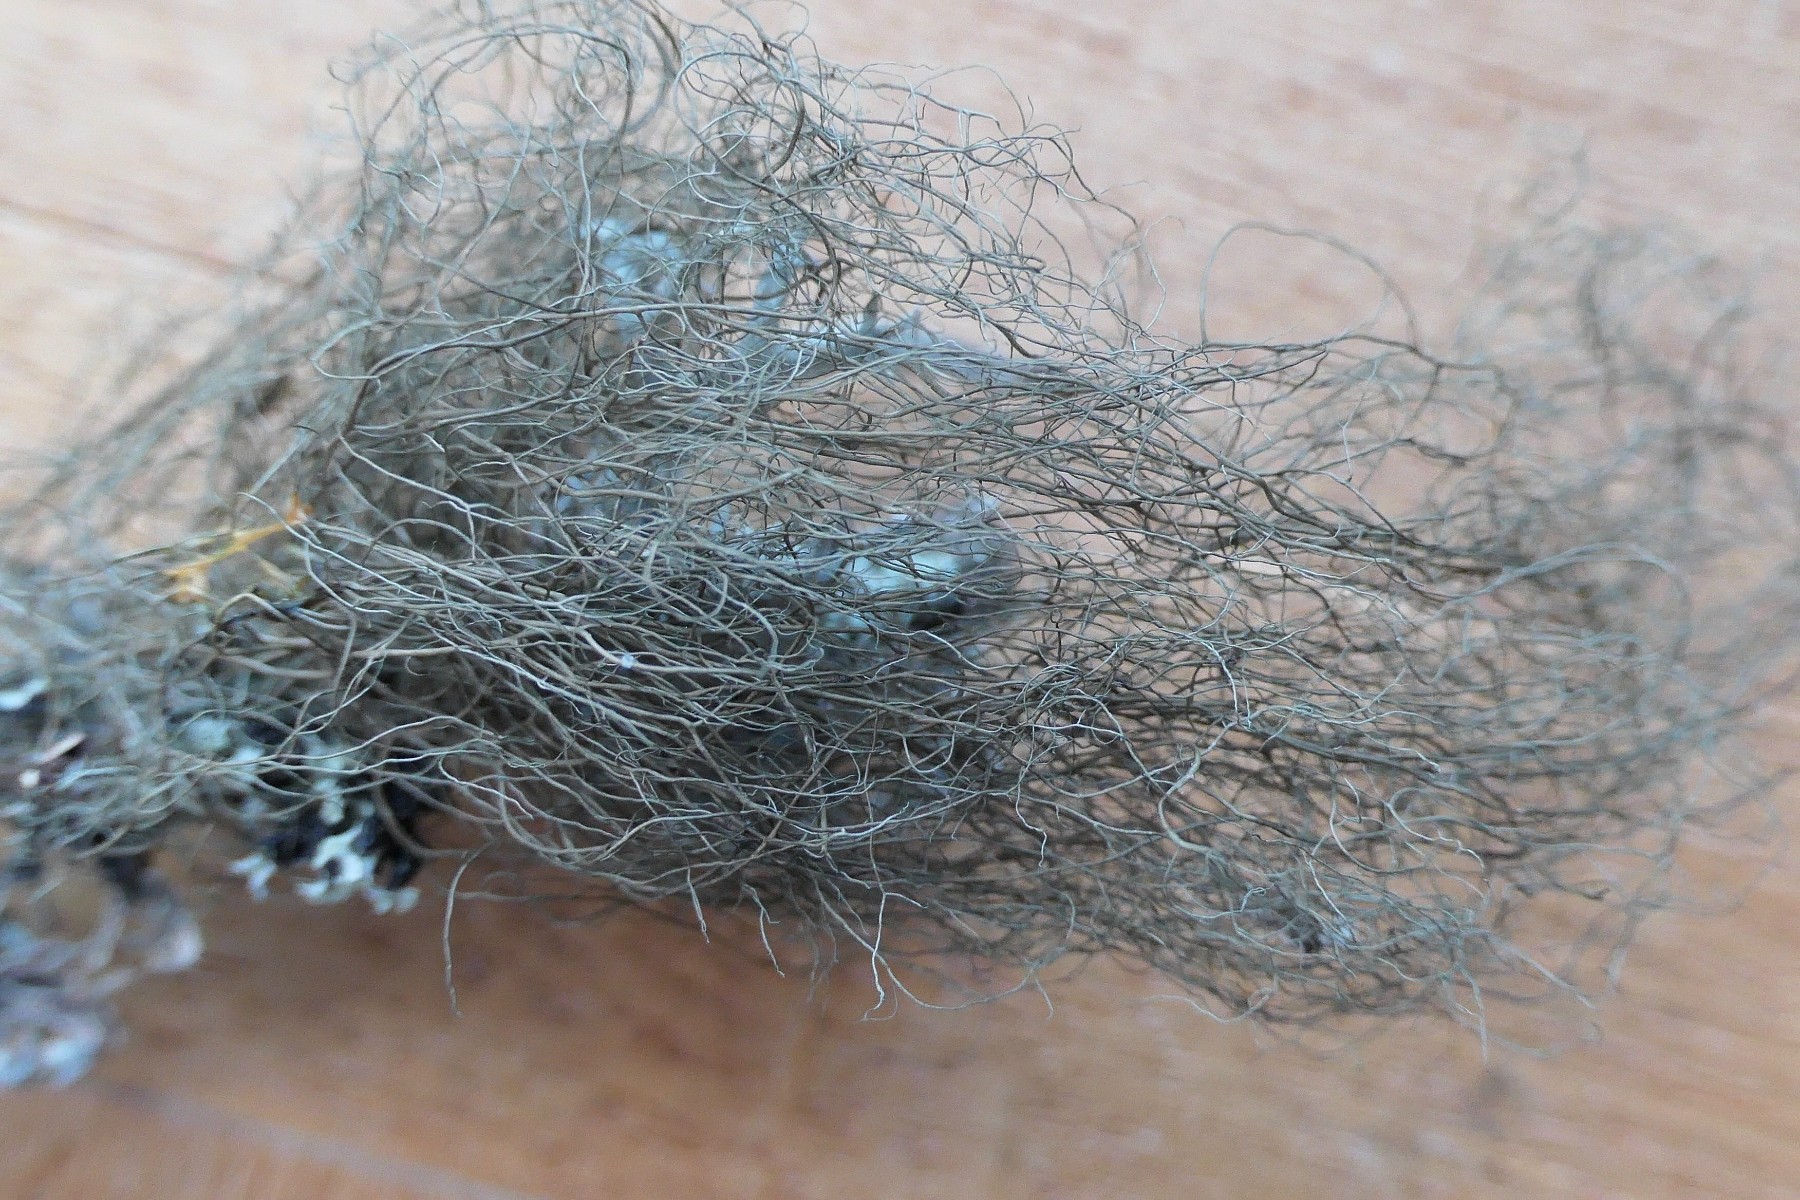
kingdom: Fungi
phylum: Ascomycota
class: Lecanoromycetes
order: Lecanorales
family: Parmeliaceae
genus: Bryoria
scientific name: Bryoria fuscescens
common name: almindelig mankelav
